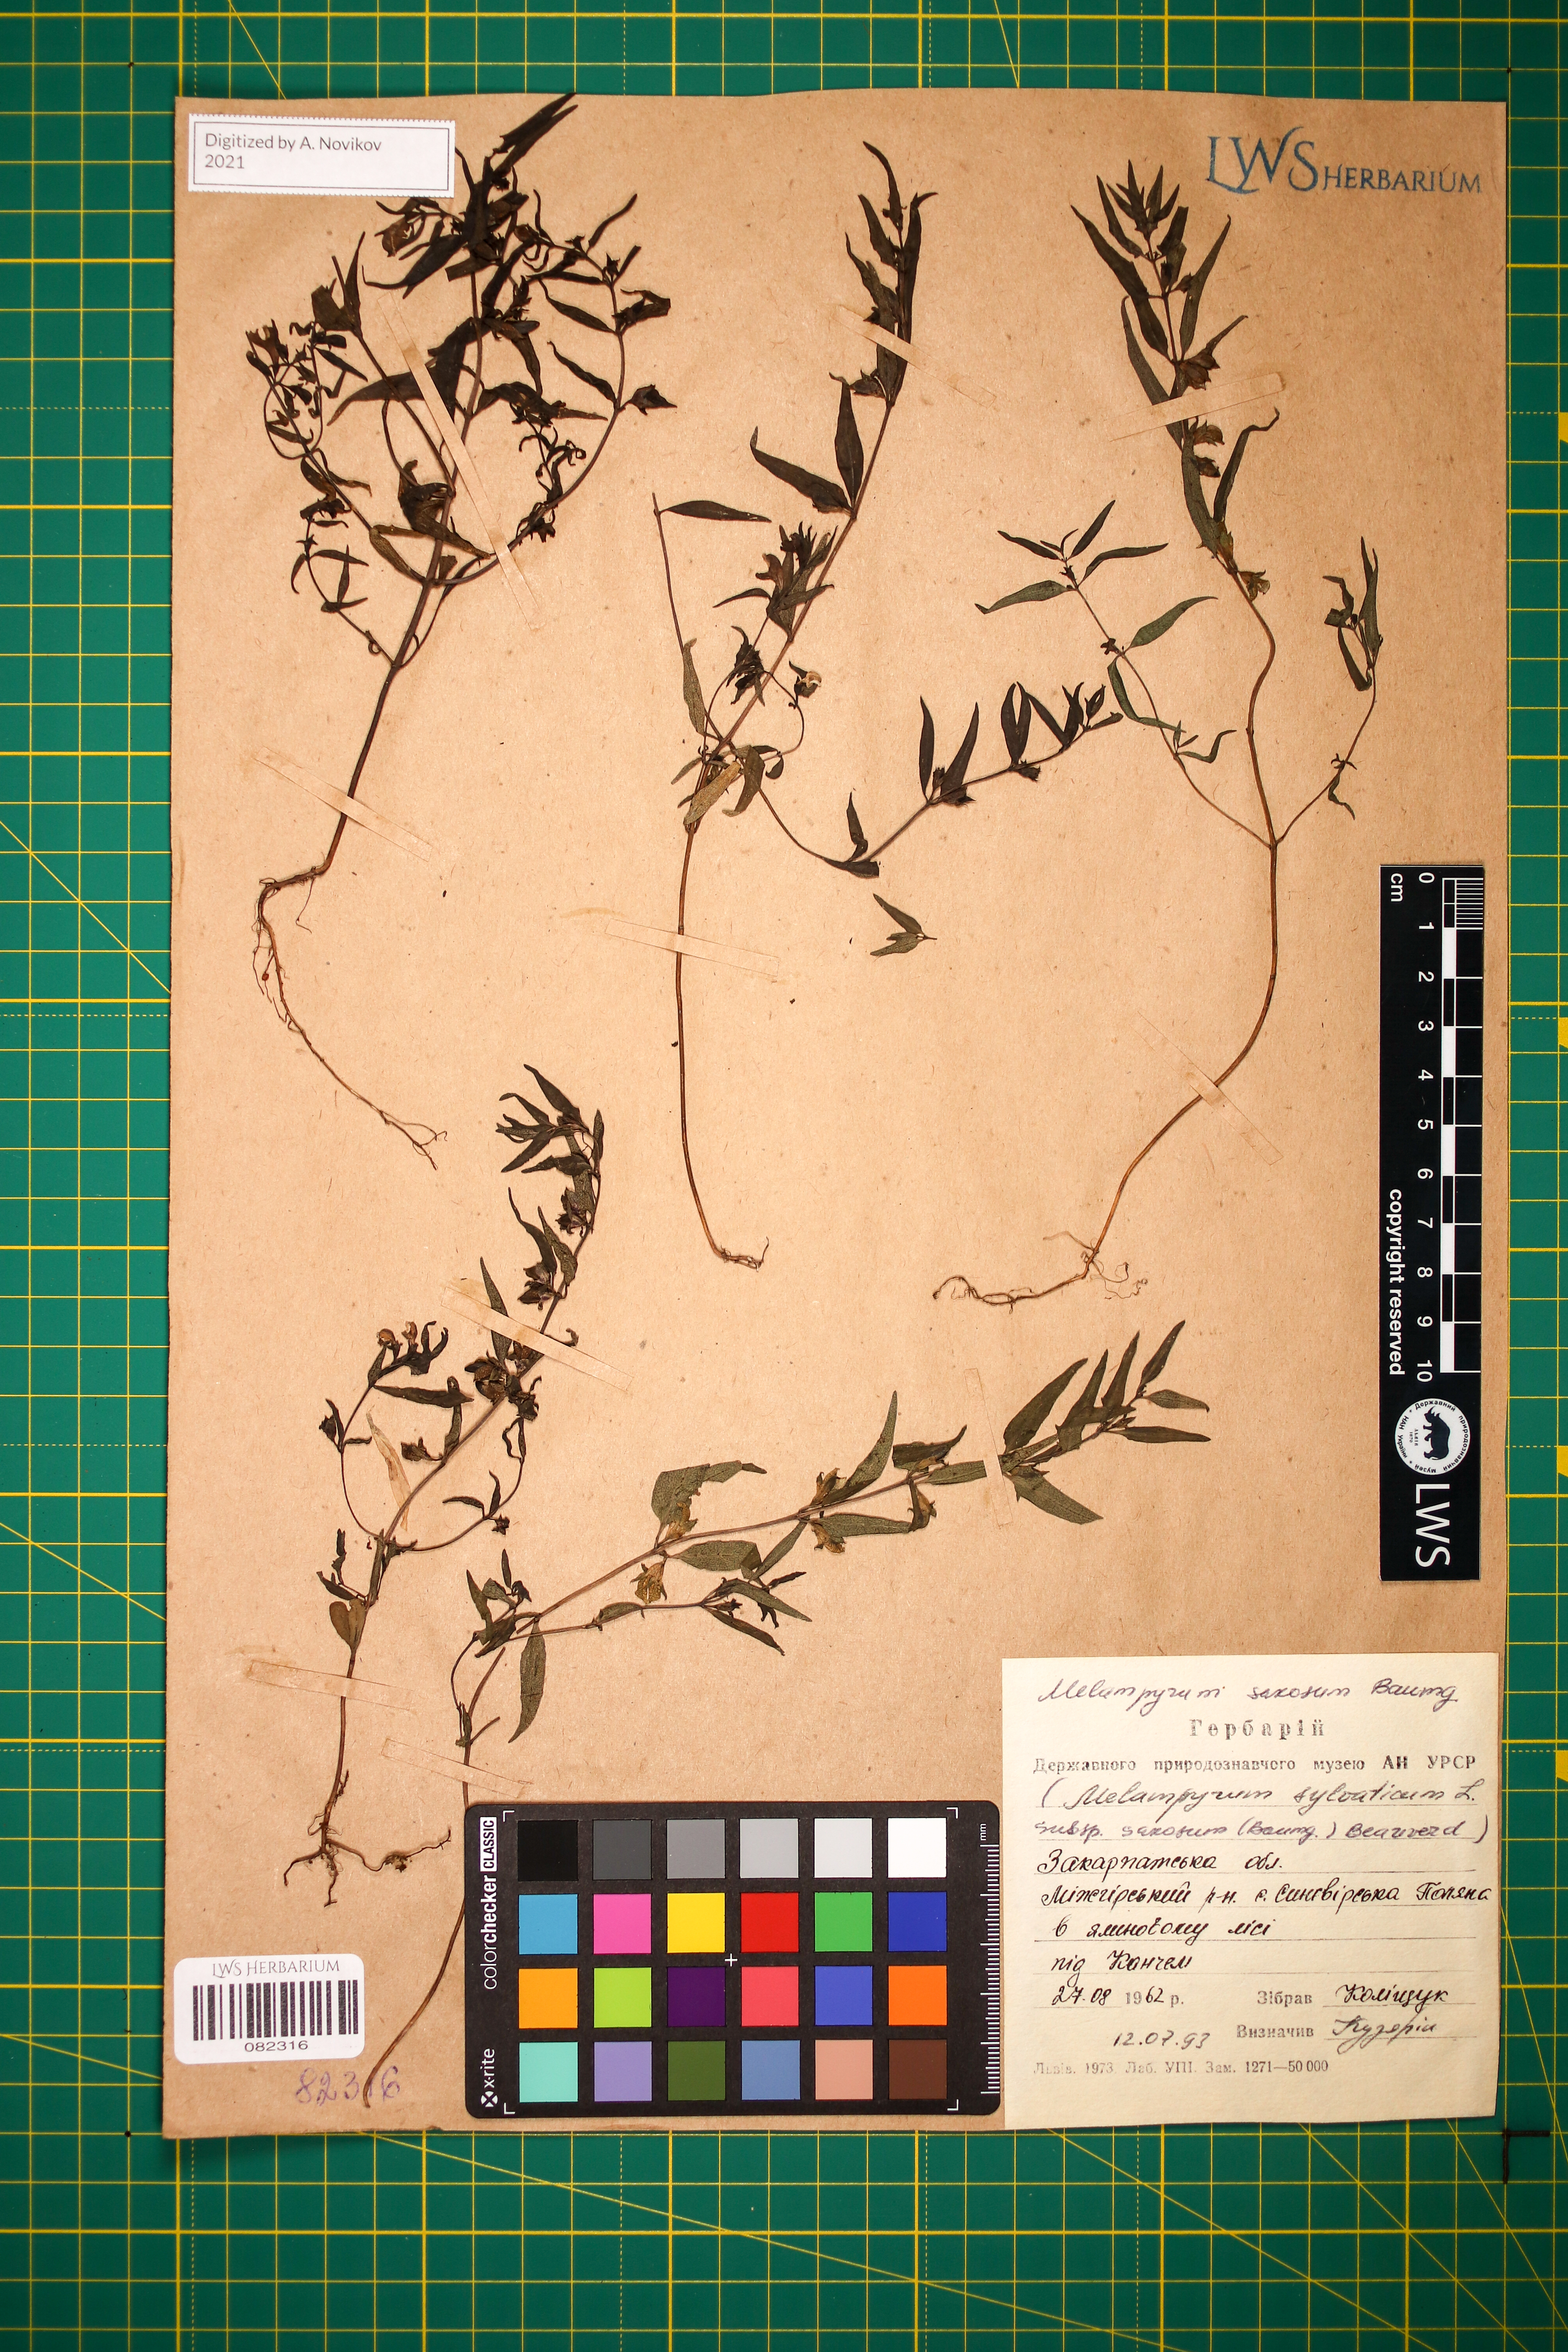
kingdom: Plantae
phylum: Tracheophyta
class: Magnoliopsida
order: Lamiales
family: Orobanchaceae
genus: Melampyrum
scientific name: Melampyrum saxosum
